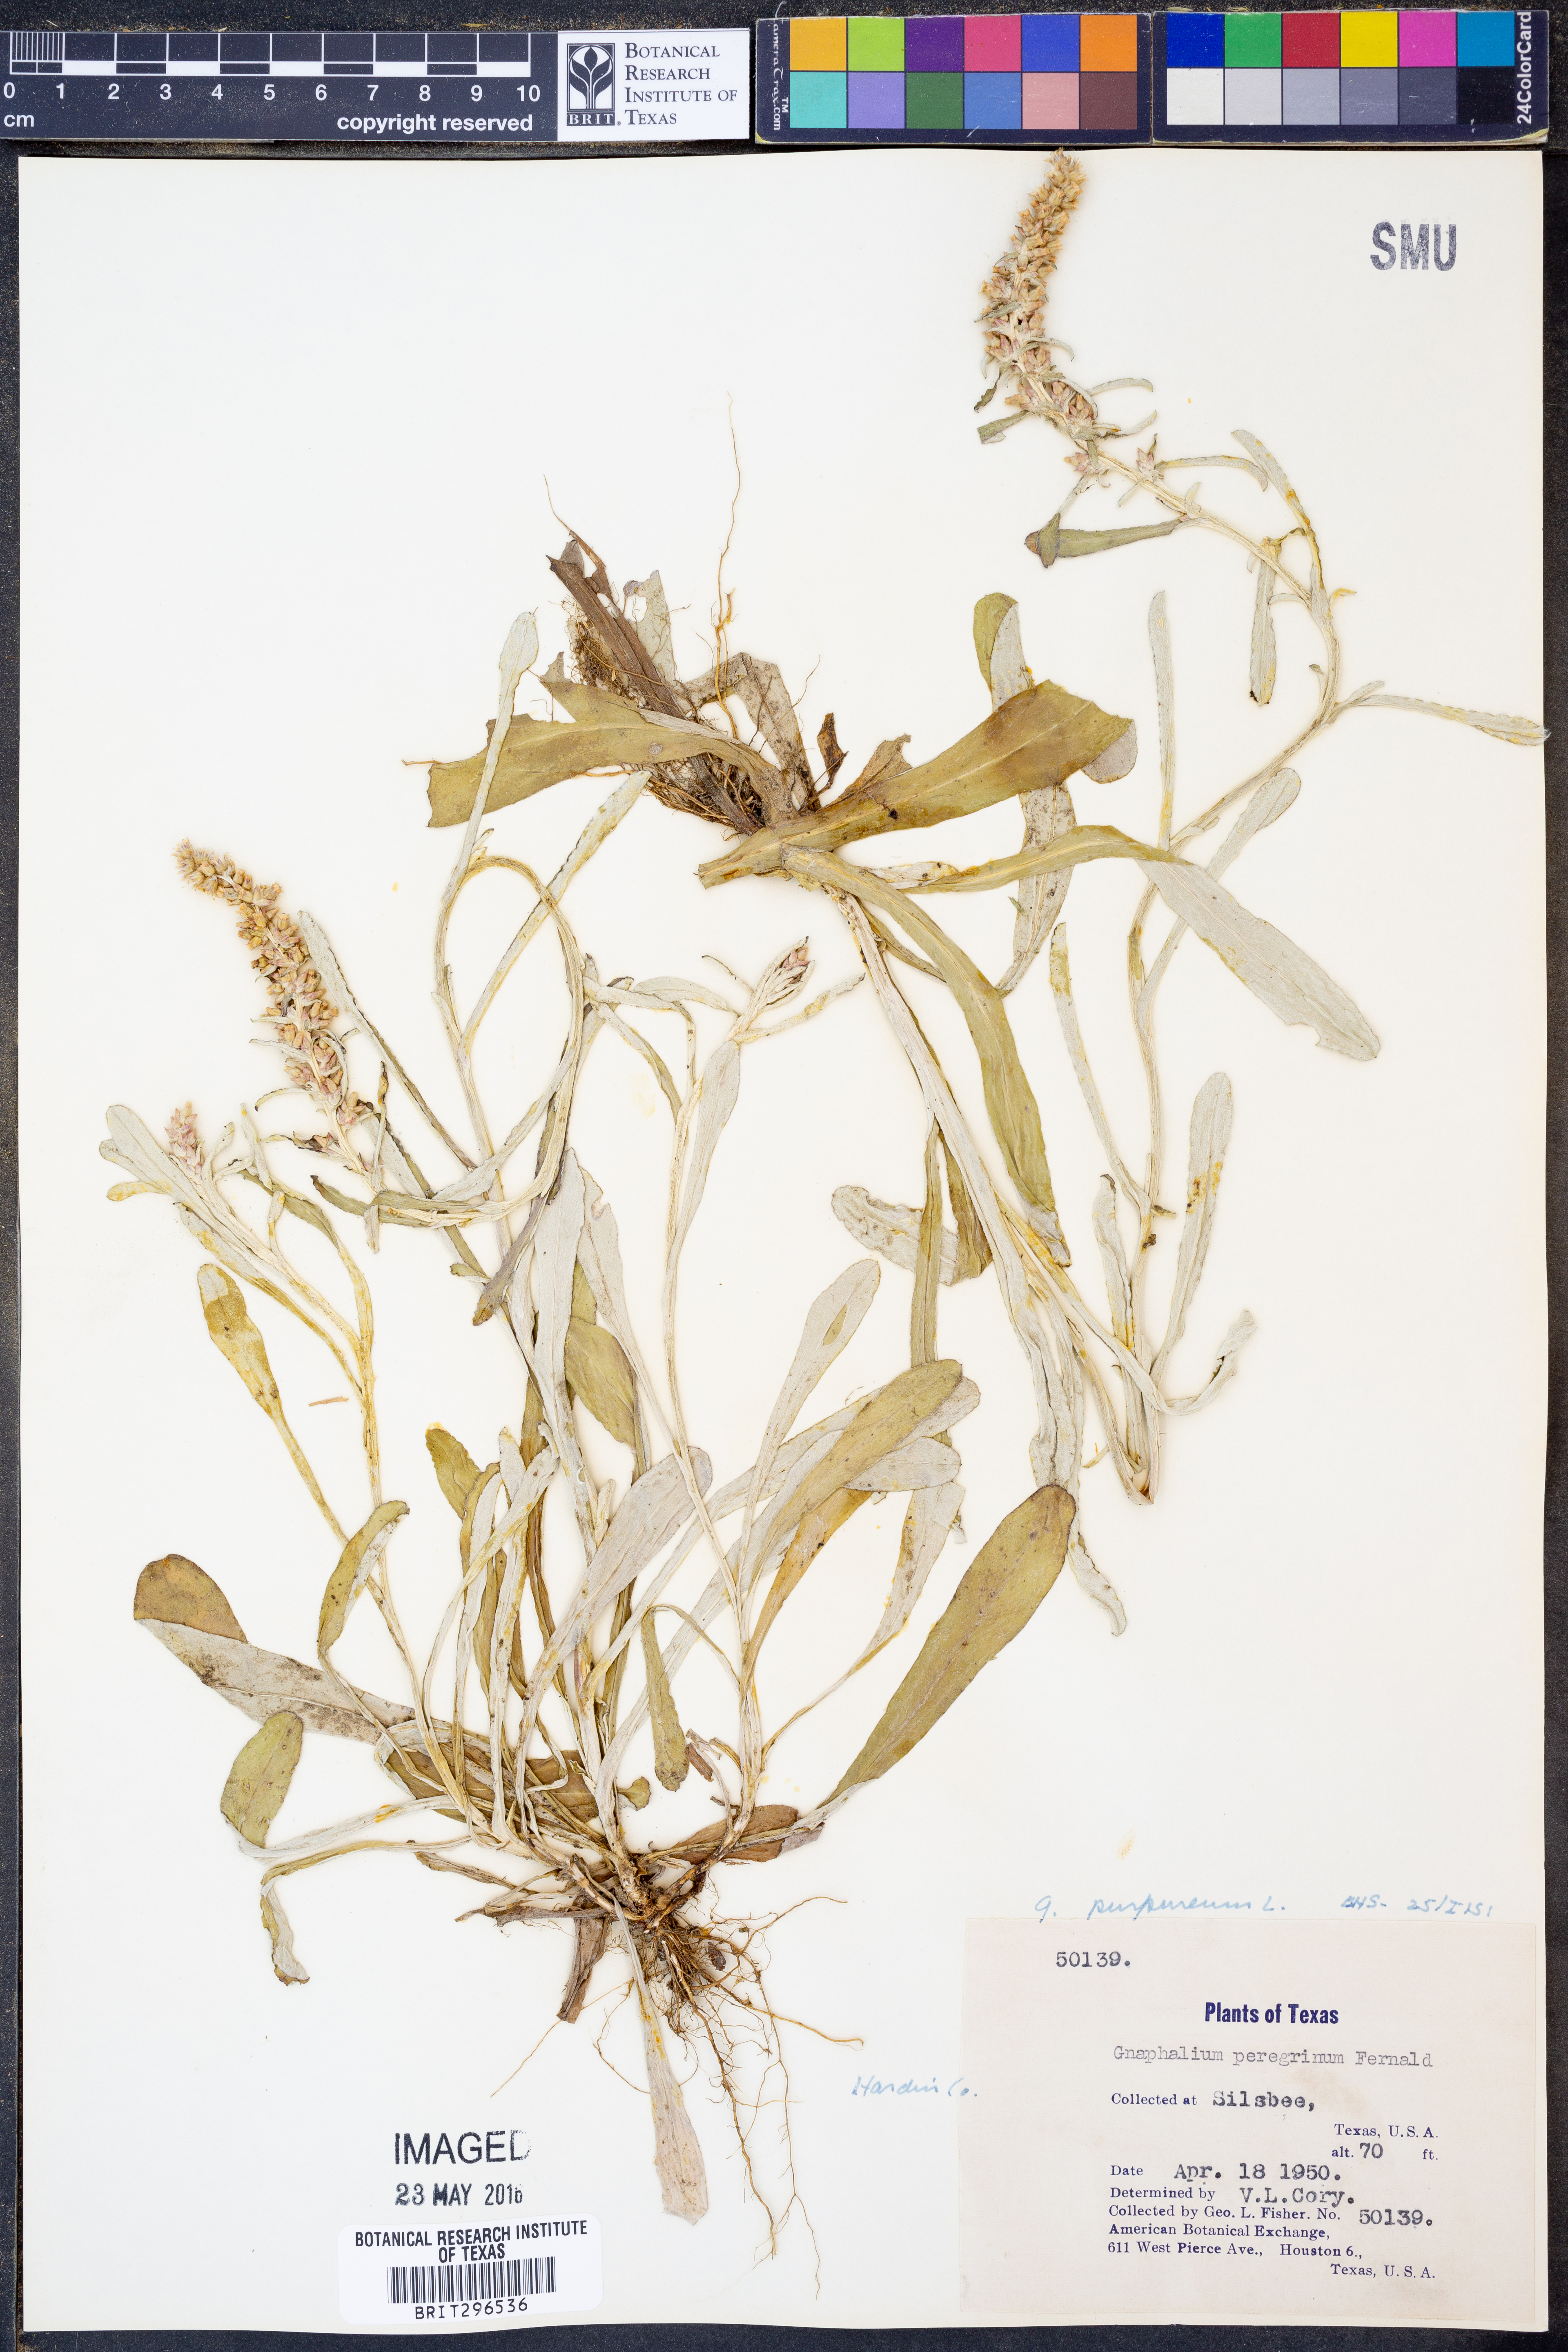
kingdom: Plantae
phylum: Tracheophyta
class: Magnoliopsida
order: Asterales
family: Asteraceae
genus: Gamochaeta
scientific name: Gamochaeta purpurea
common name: Purple cudweed
